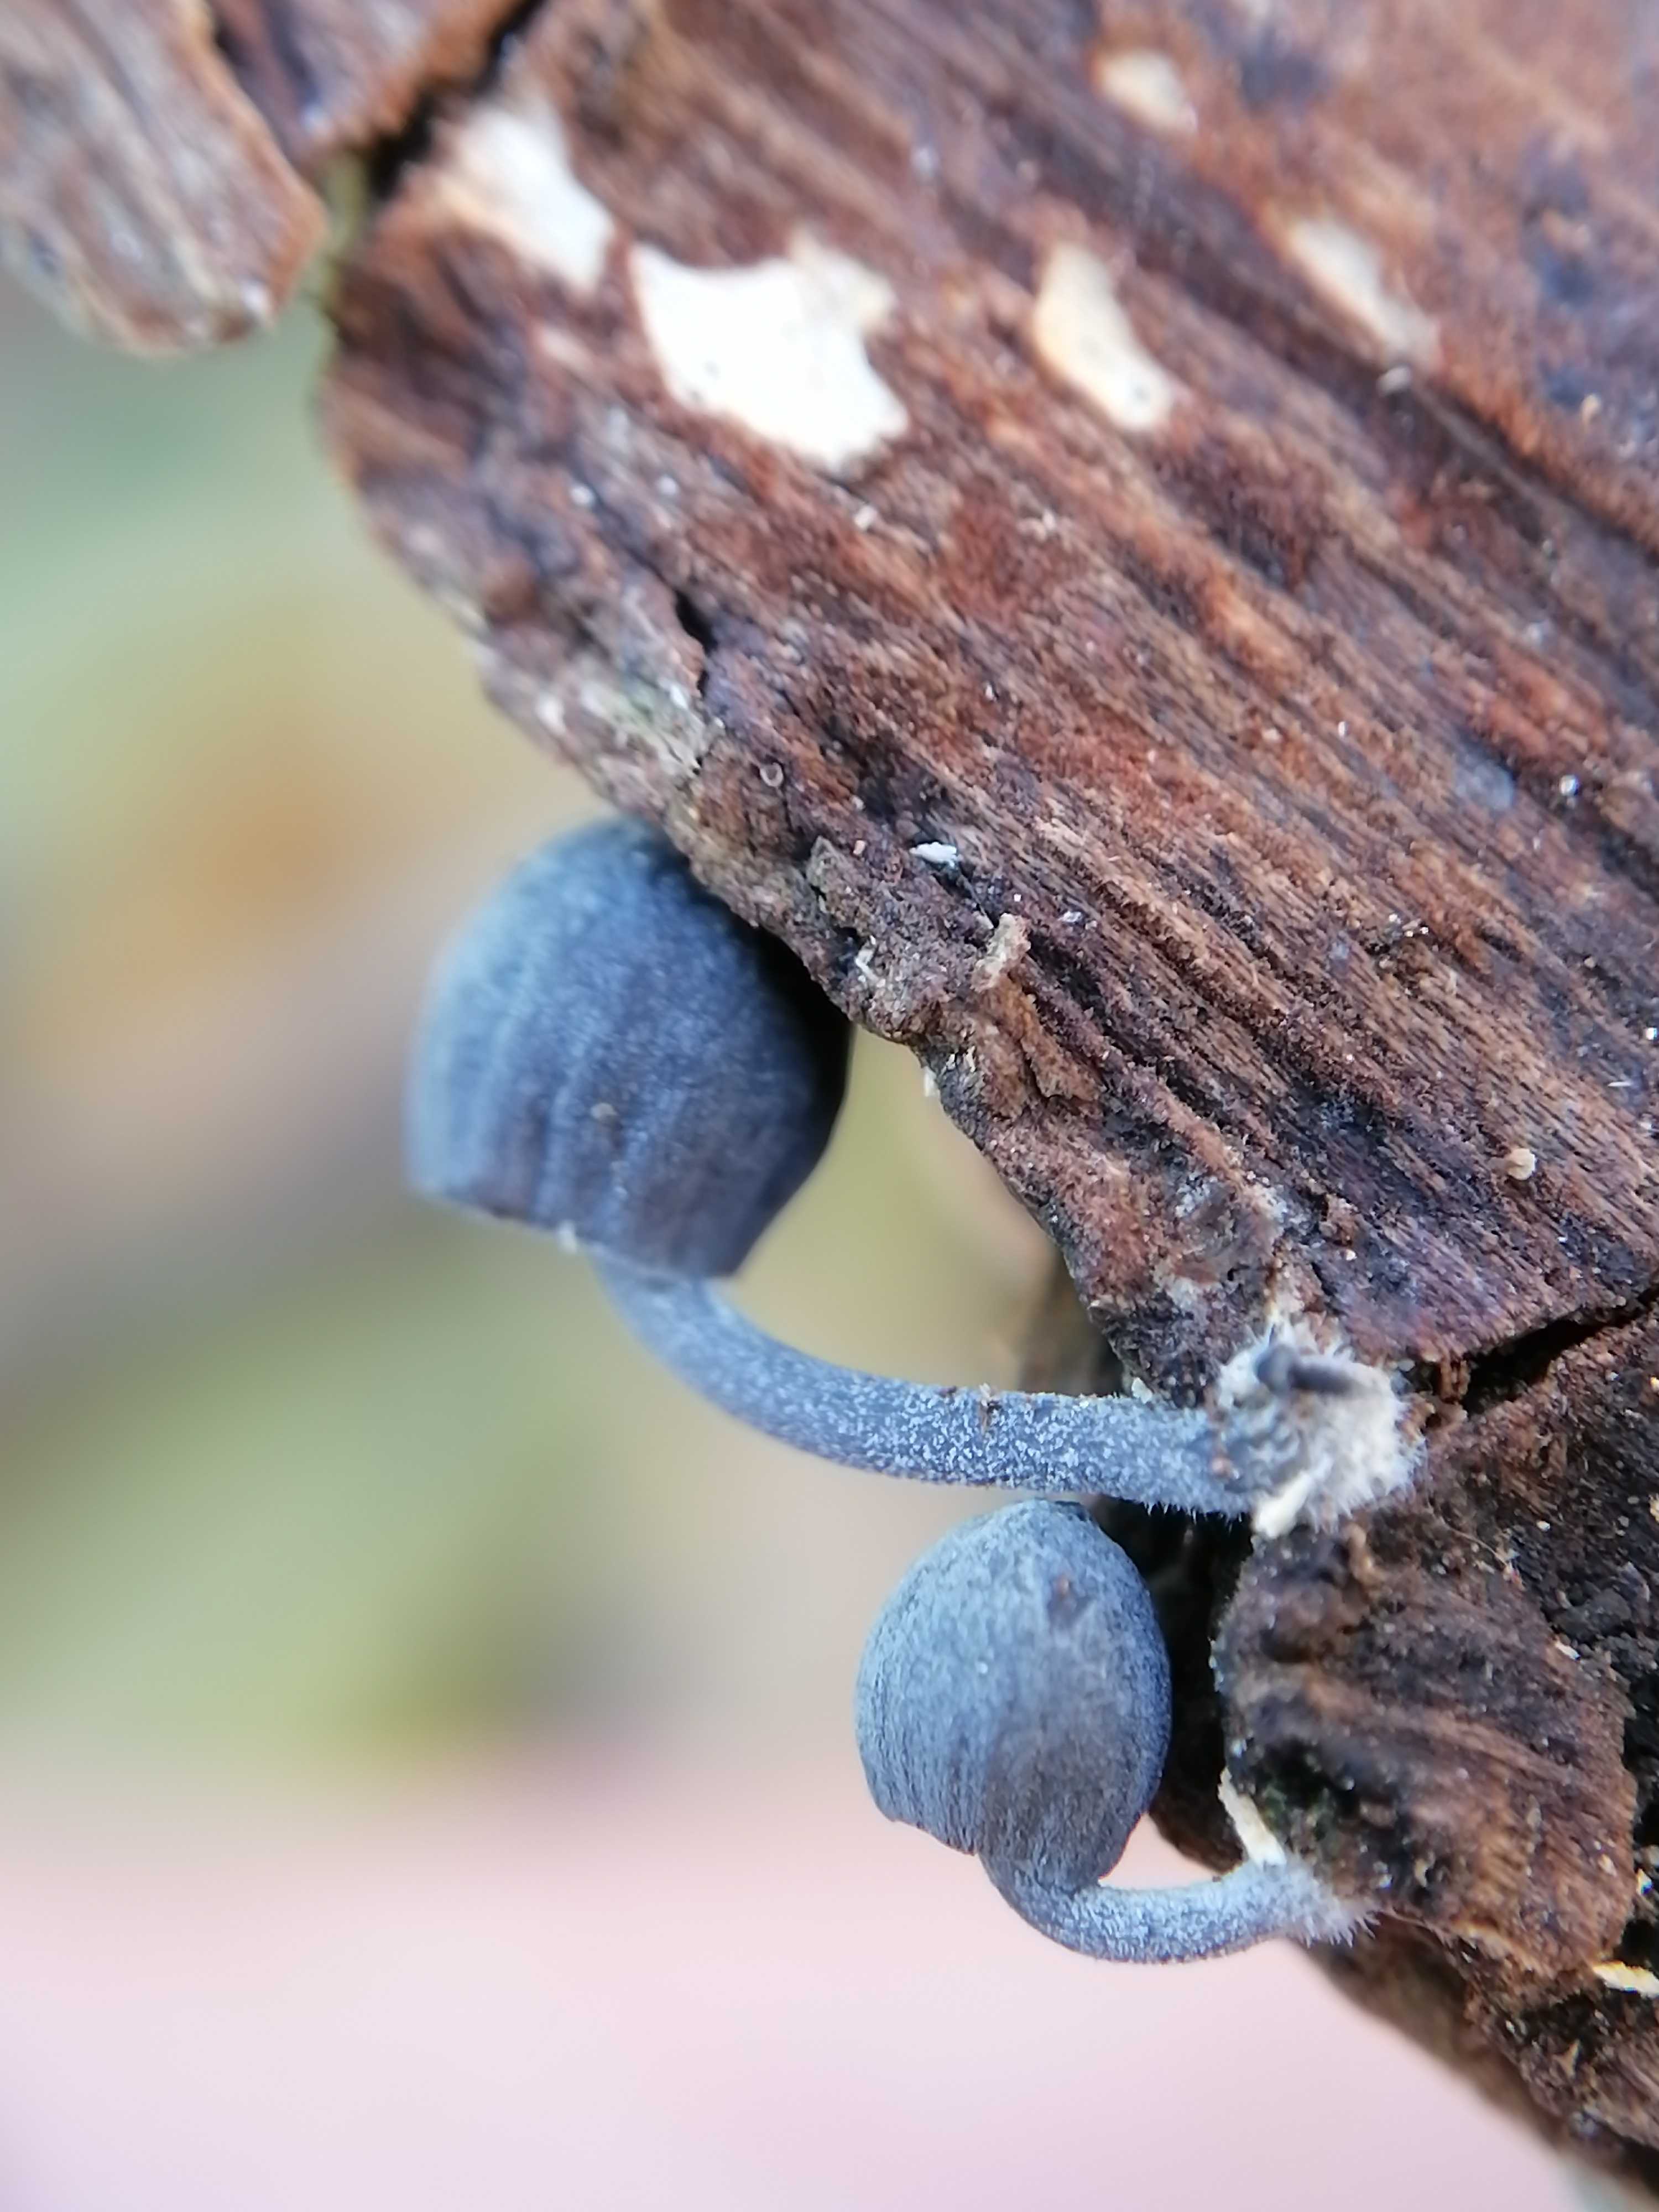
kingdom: Fungi
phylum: Basidiomycota
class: Agaricomycetes
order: Agaricales
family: Mycenaceae
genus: Mycena
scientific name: Mycena pseudocorticola
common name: gråblå bark-huesvamp
